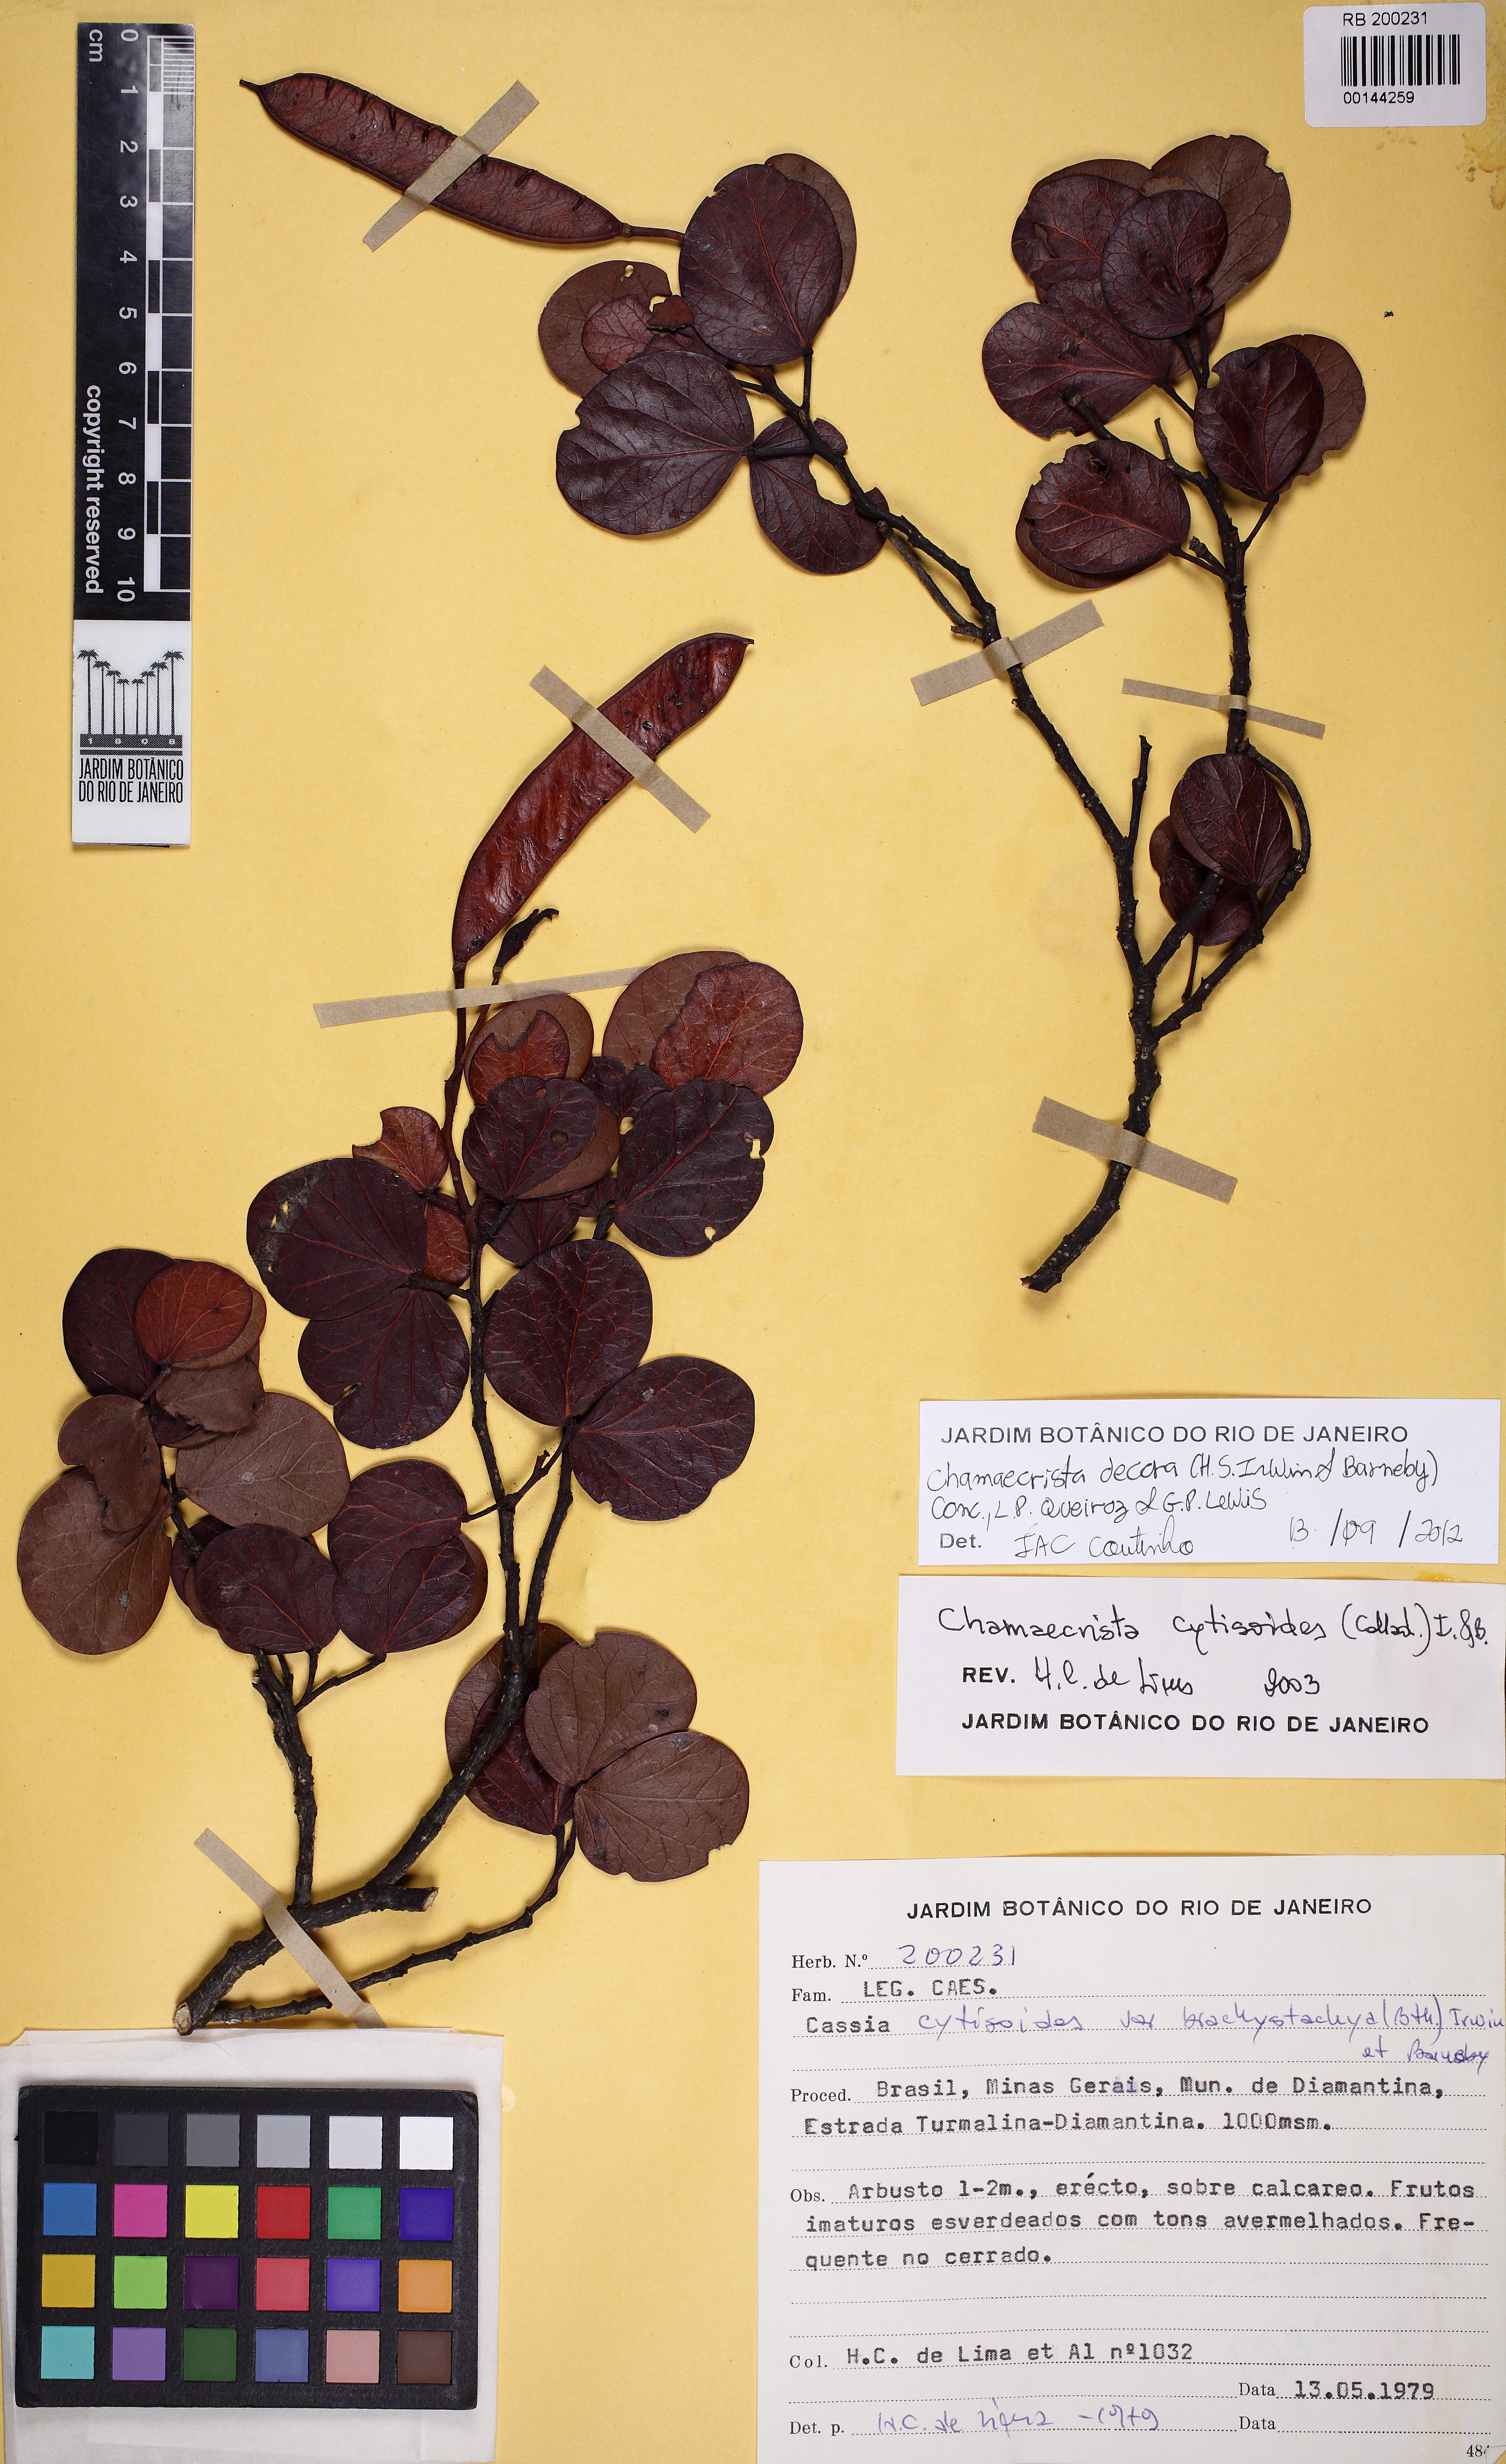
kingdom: Plantae
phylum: Tracheophyta
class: Magnoliopsida
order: Fabales
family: Fabaceae
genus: Chamaecrista
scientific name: Chamaecrista decora
